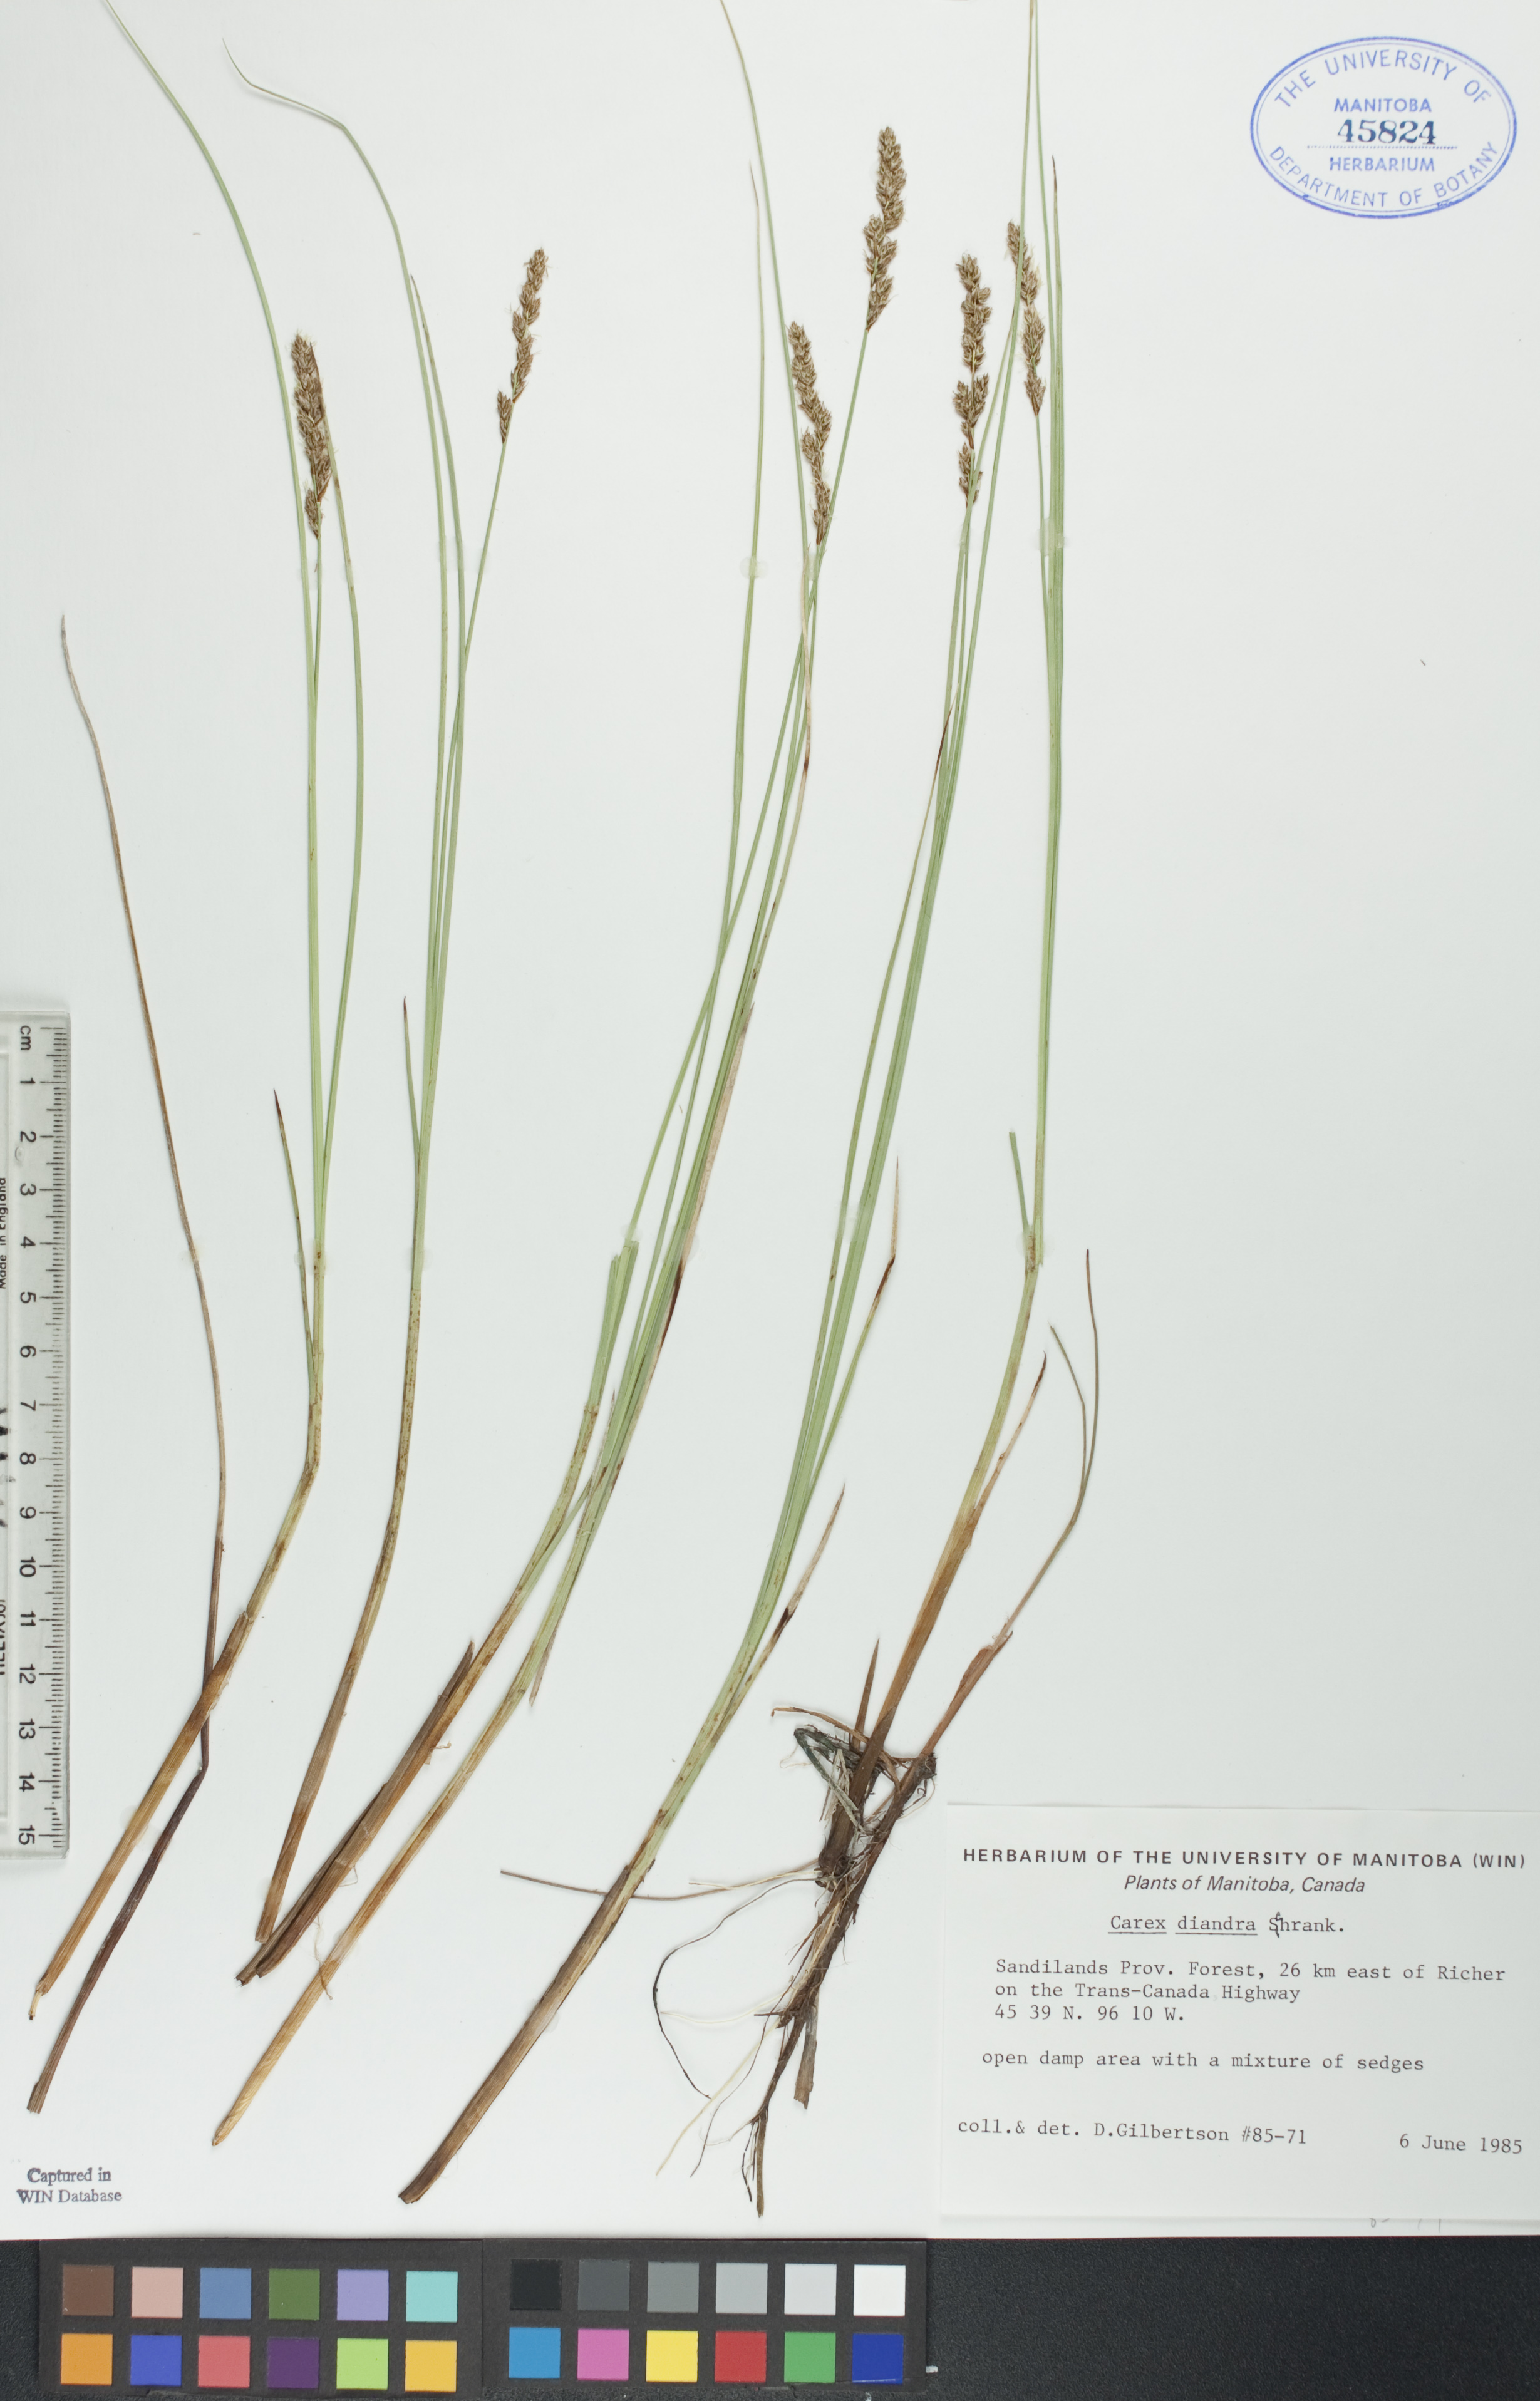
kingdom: Plantae
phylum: Tracheophyta
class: Liliopsida
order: Poales
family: Cyperaceae
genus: Carex
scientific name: Carex diandra
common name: Lesser tussock-sedge
